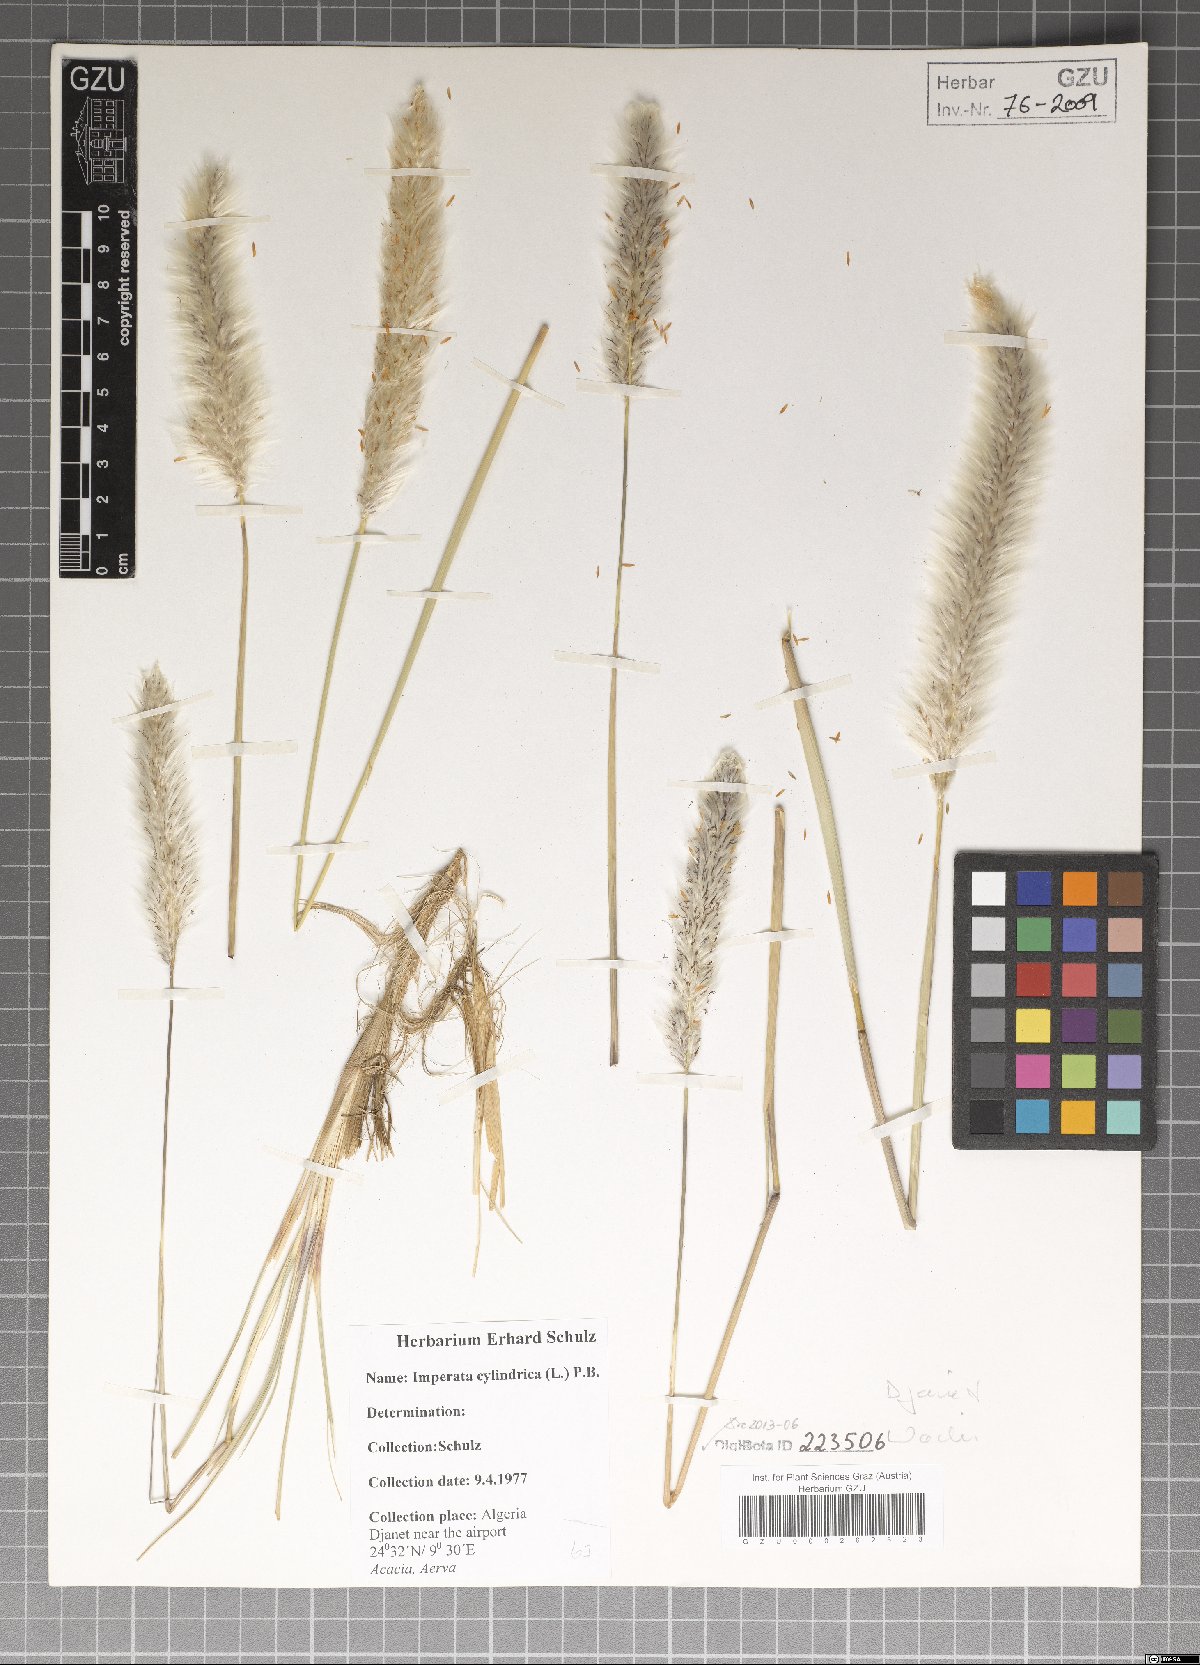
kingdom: Plantae
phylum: Tracheophyta
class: Liliopsida
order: Poales
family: Poaceae
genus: Imperata
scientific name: Imperata cylindrica
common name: Cogongrass
